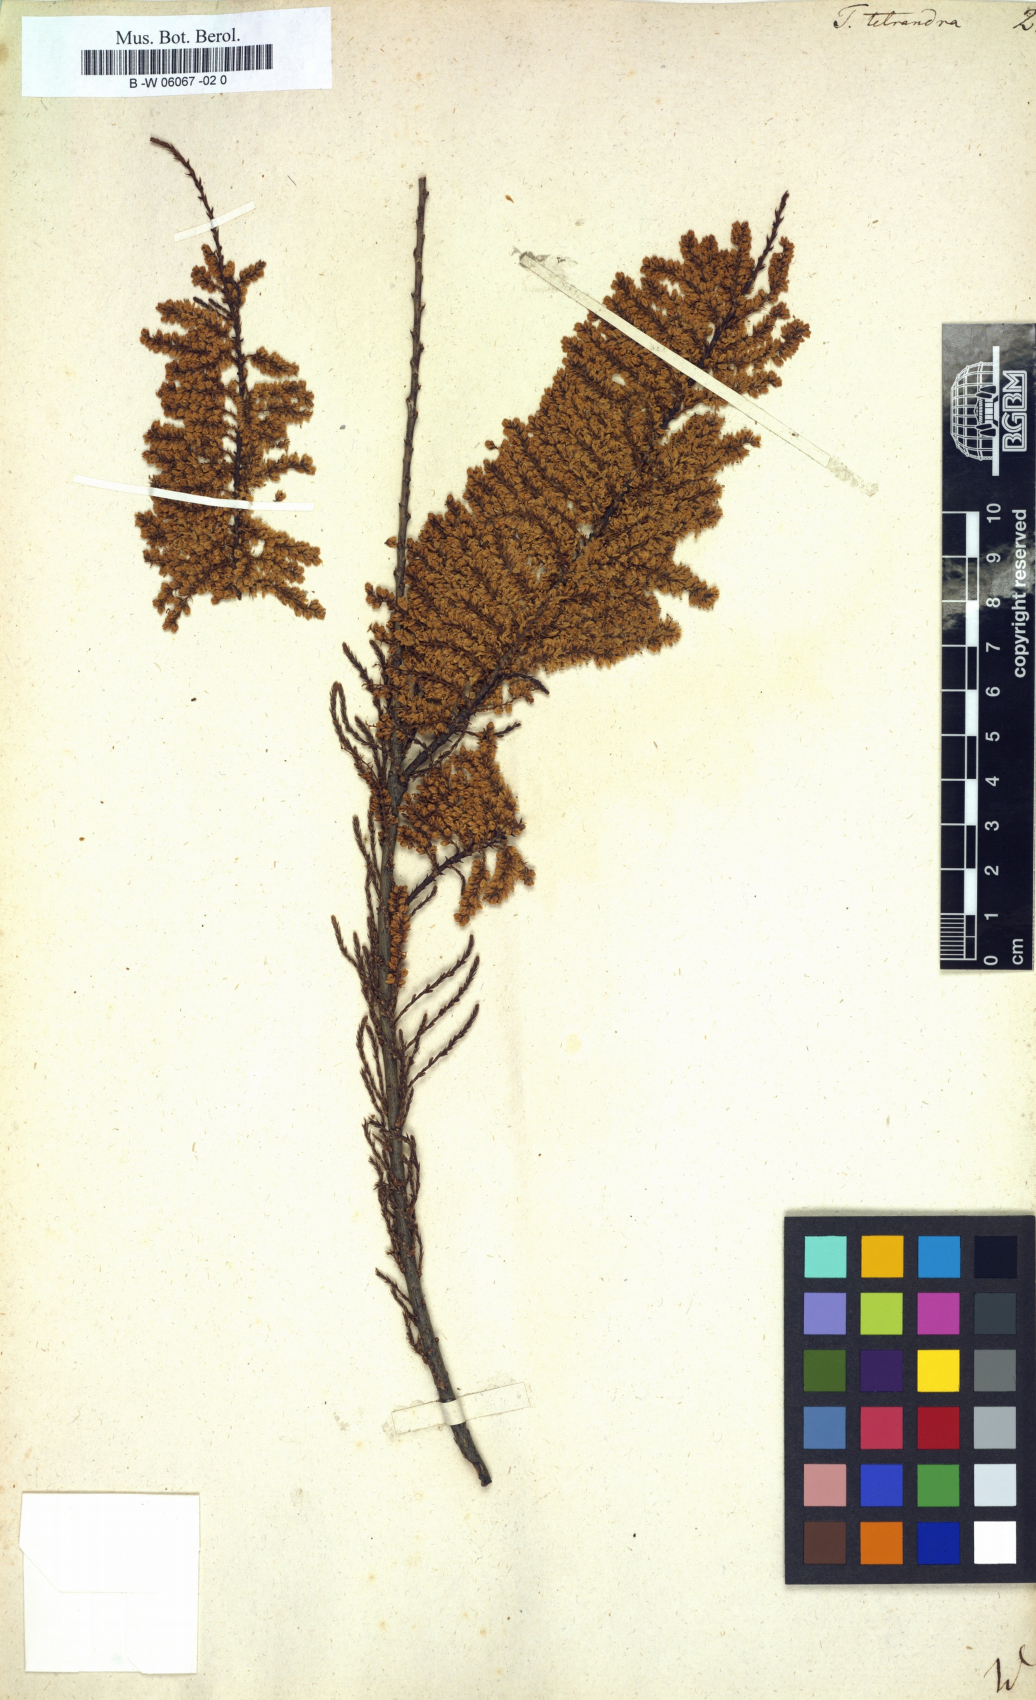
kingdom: Plantae
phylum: Tracheophyta
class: Magnoliopsida
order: Caryophyllales
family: Tamaricaceae
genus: Tamarix
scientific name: Tamarix tetrandra
